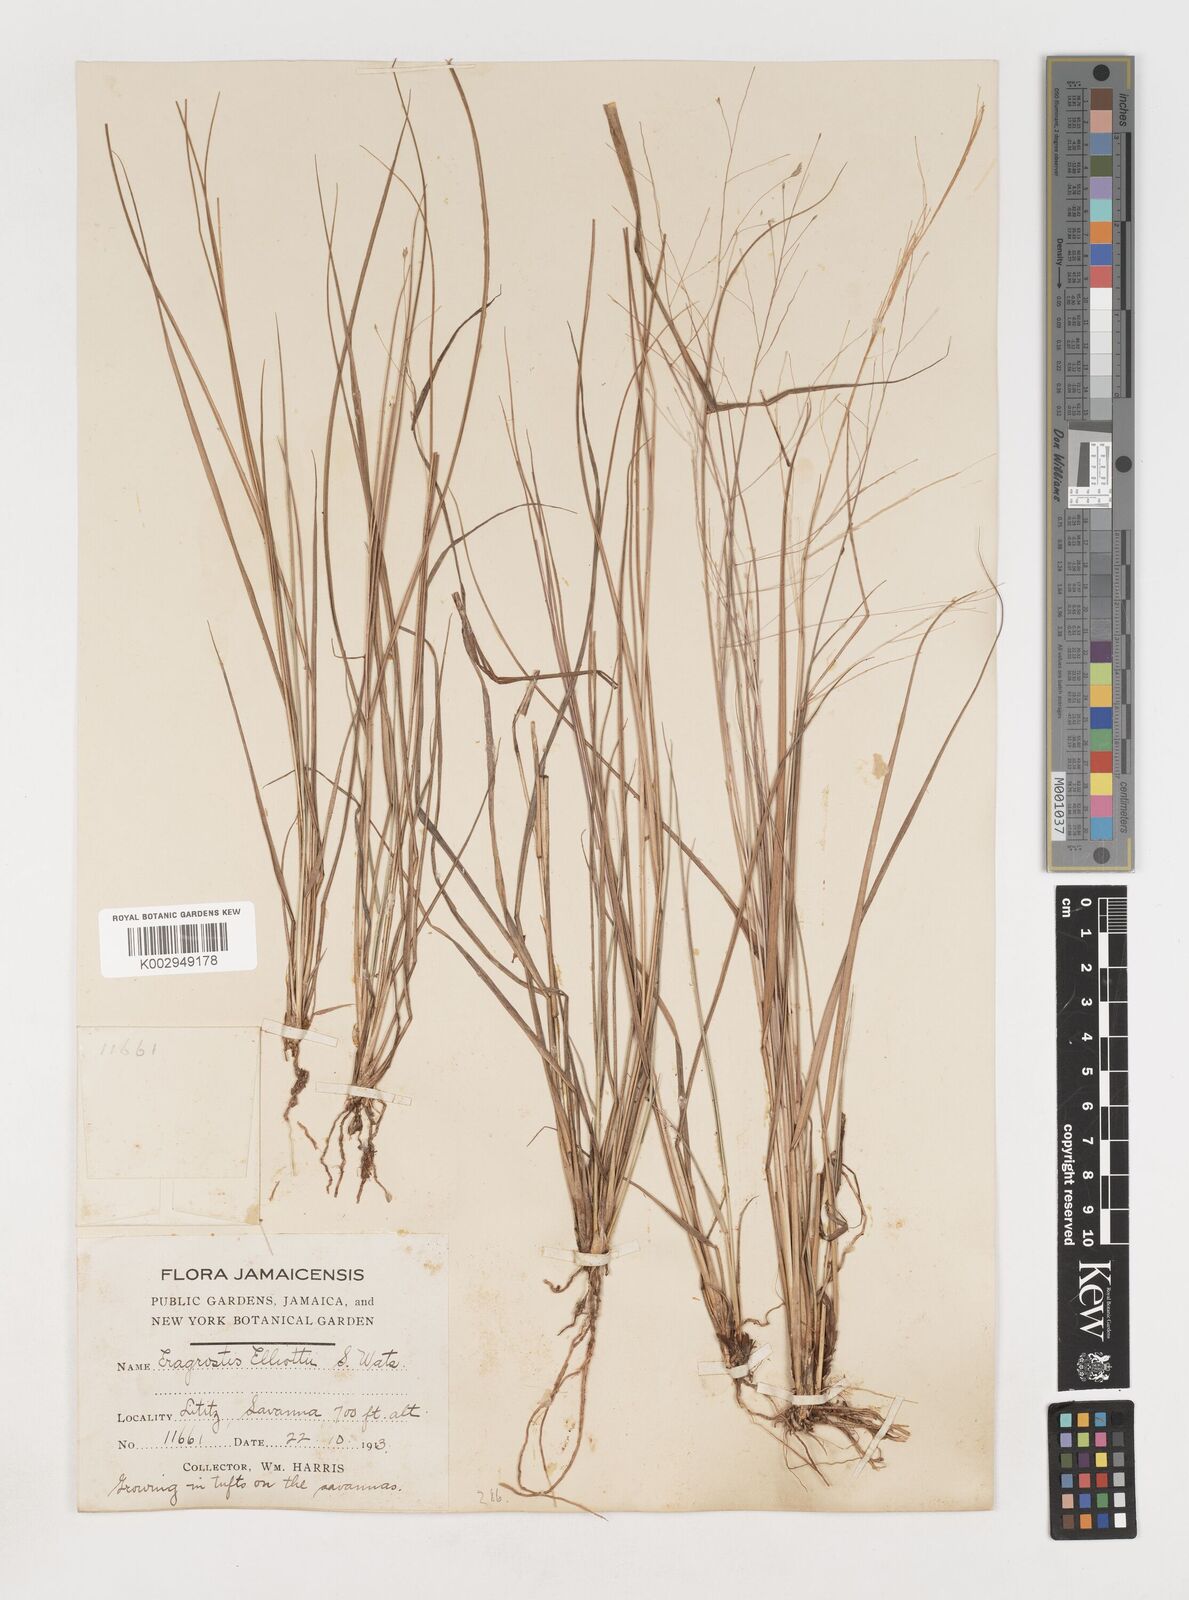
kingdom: Plantae
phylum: Tracheophyta
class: Liliopsida
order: Poales
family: Poaceae
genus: Eragrostis
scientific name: Eragrostis elliottii
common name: Elliott's love grass
